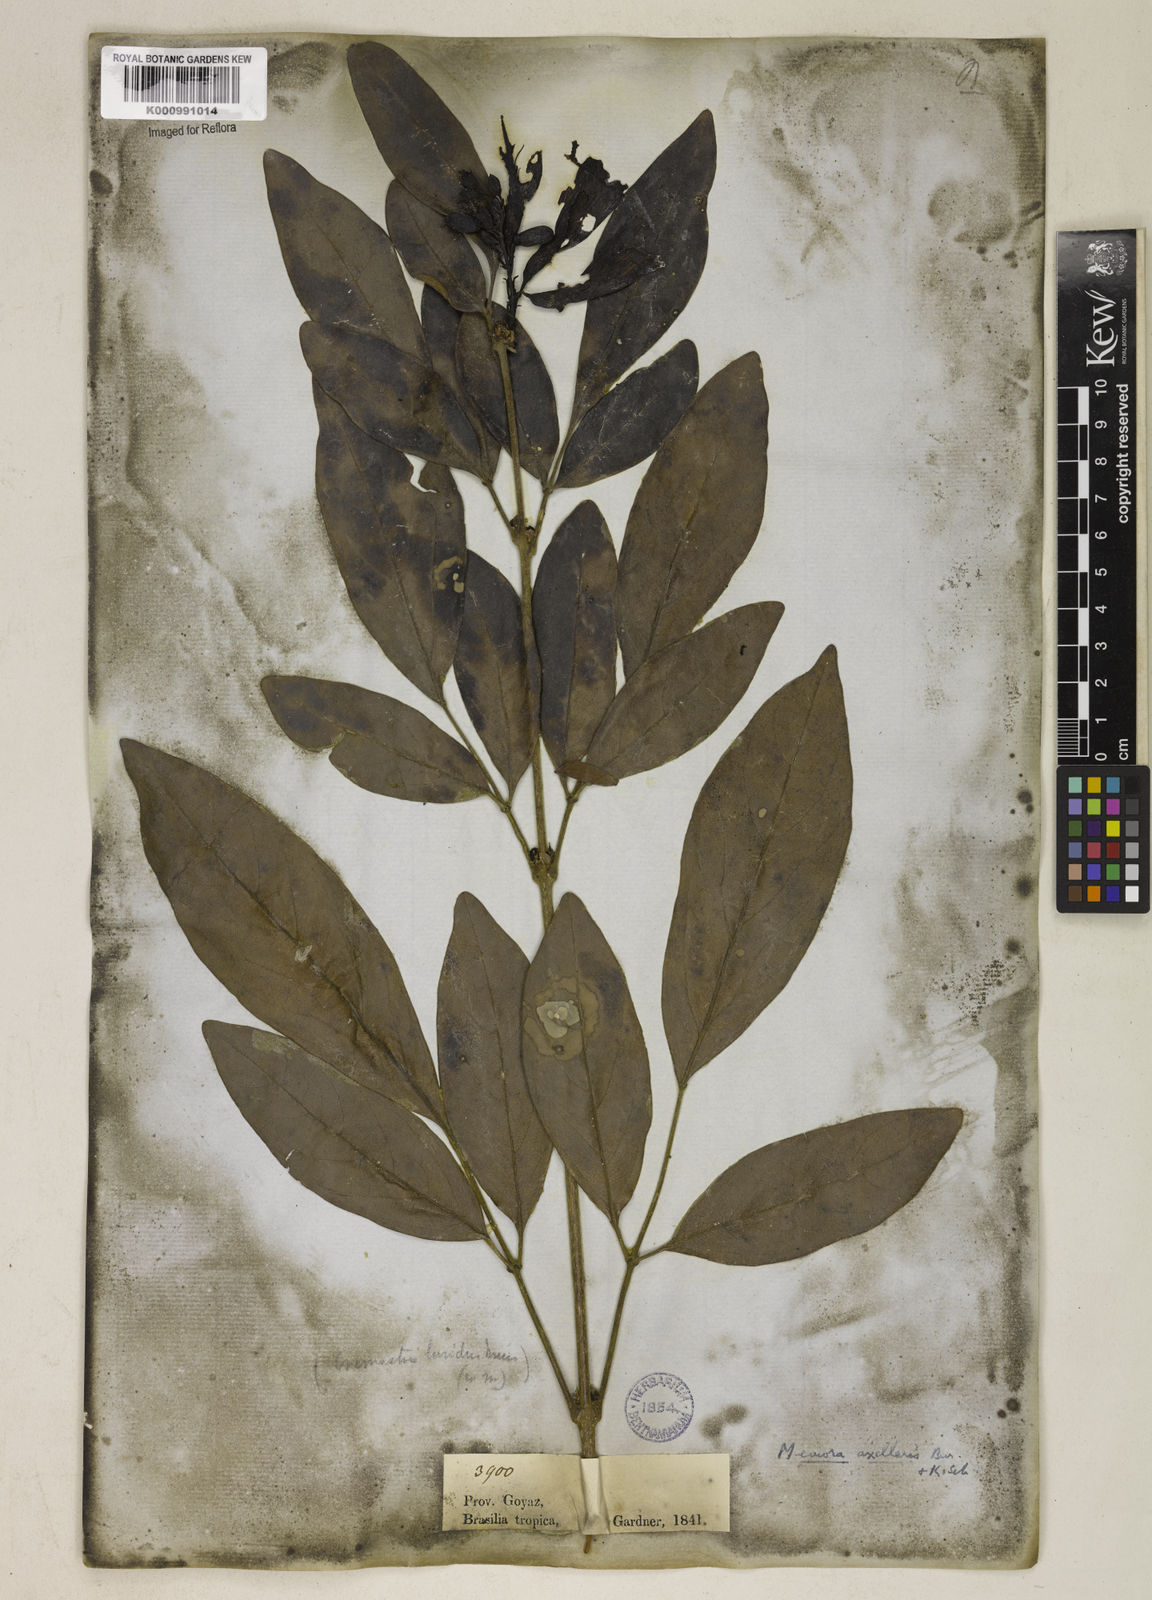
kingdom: Plantae
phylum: Tracheophyta
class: Magnoliopsida
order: Lamiales
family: Bignoniaceae
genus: Adenocalymma
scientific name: Adenocalymma axillare
